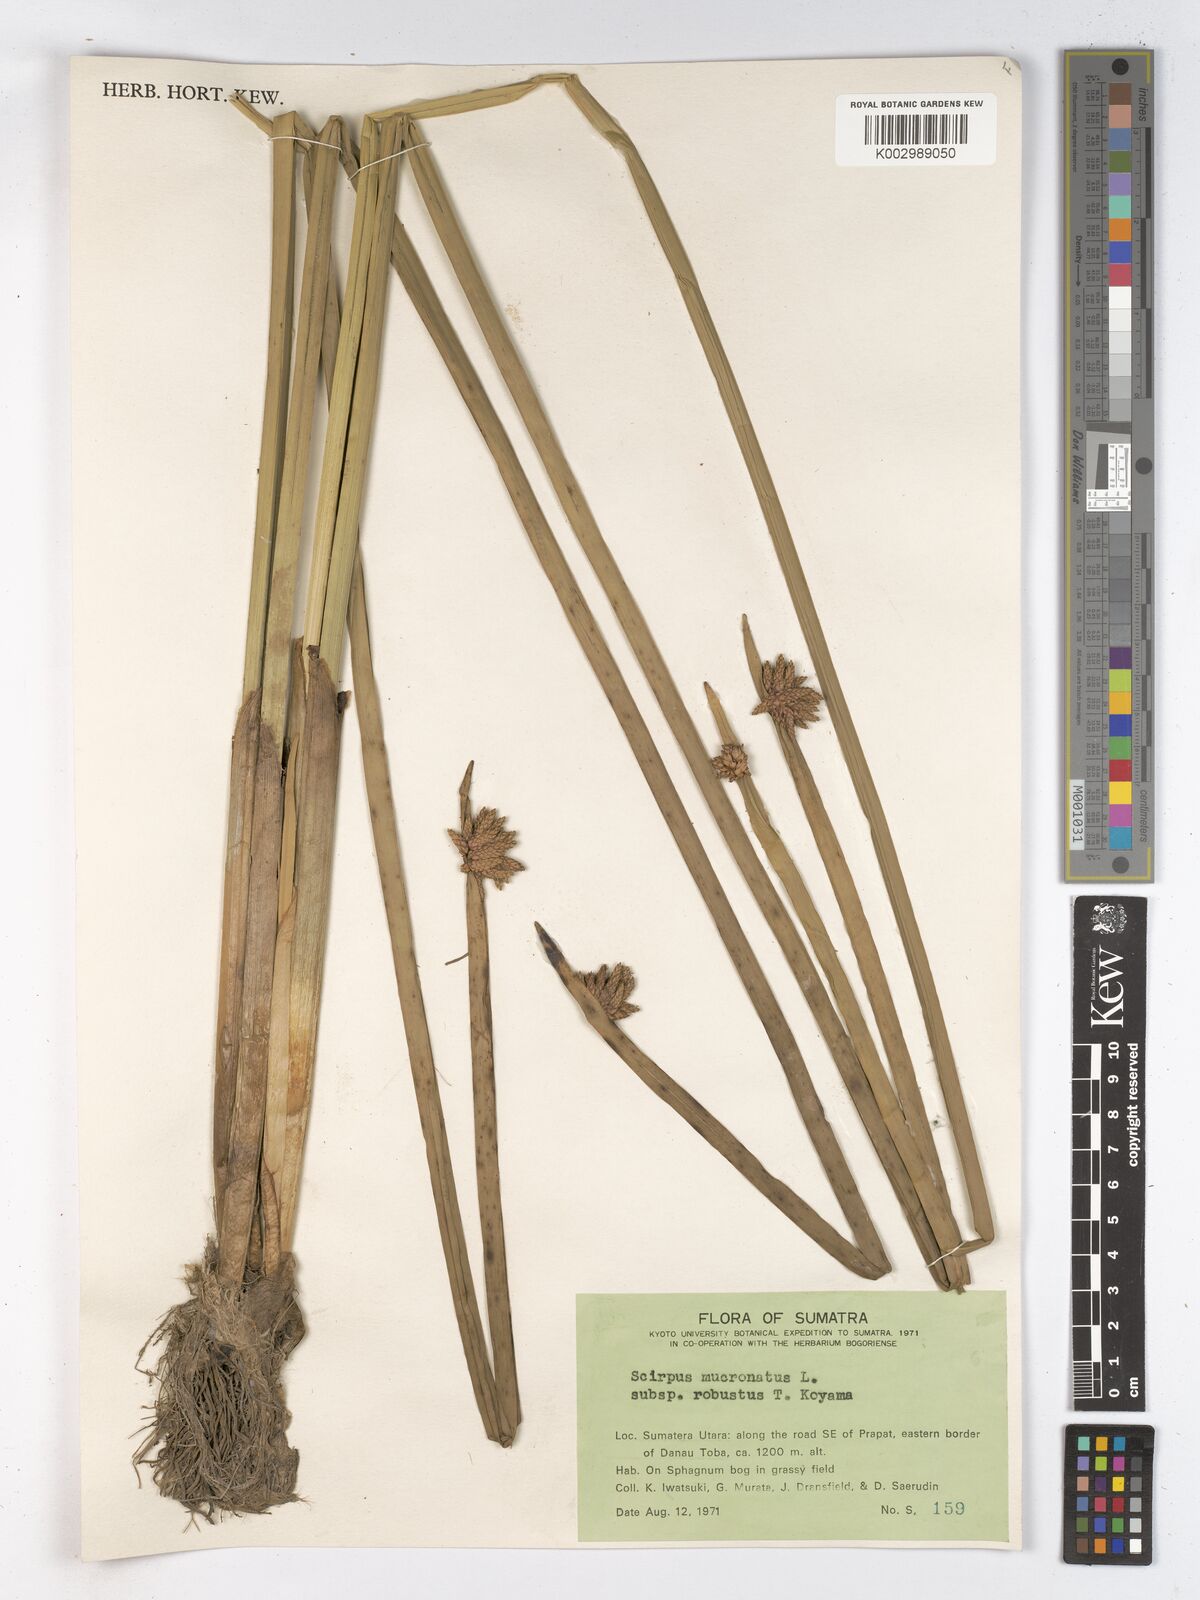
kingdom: Plantae
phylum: Tracheophyta
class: Liliopsida
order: Poales
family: Cyperaceae
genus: Schoenoplectiella
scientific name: Schoenoplectiella triangulata
